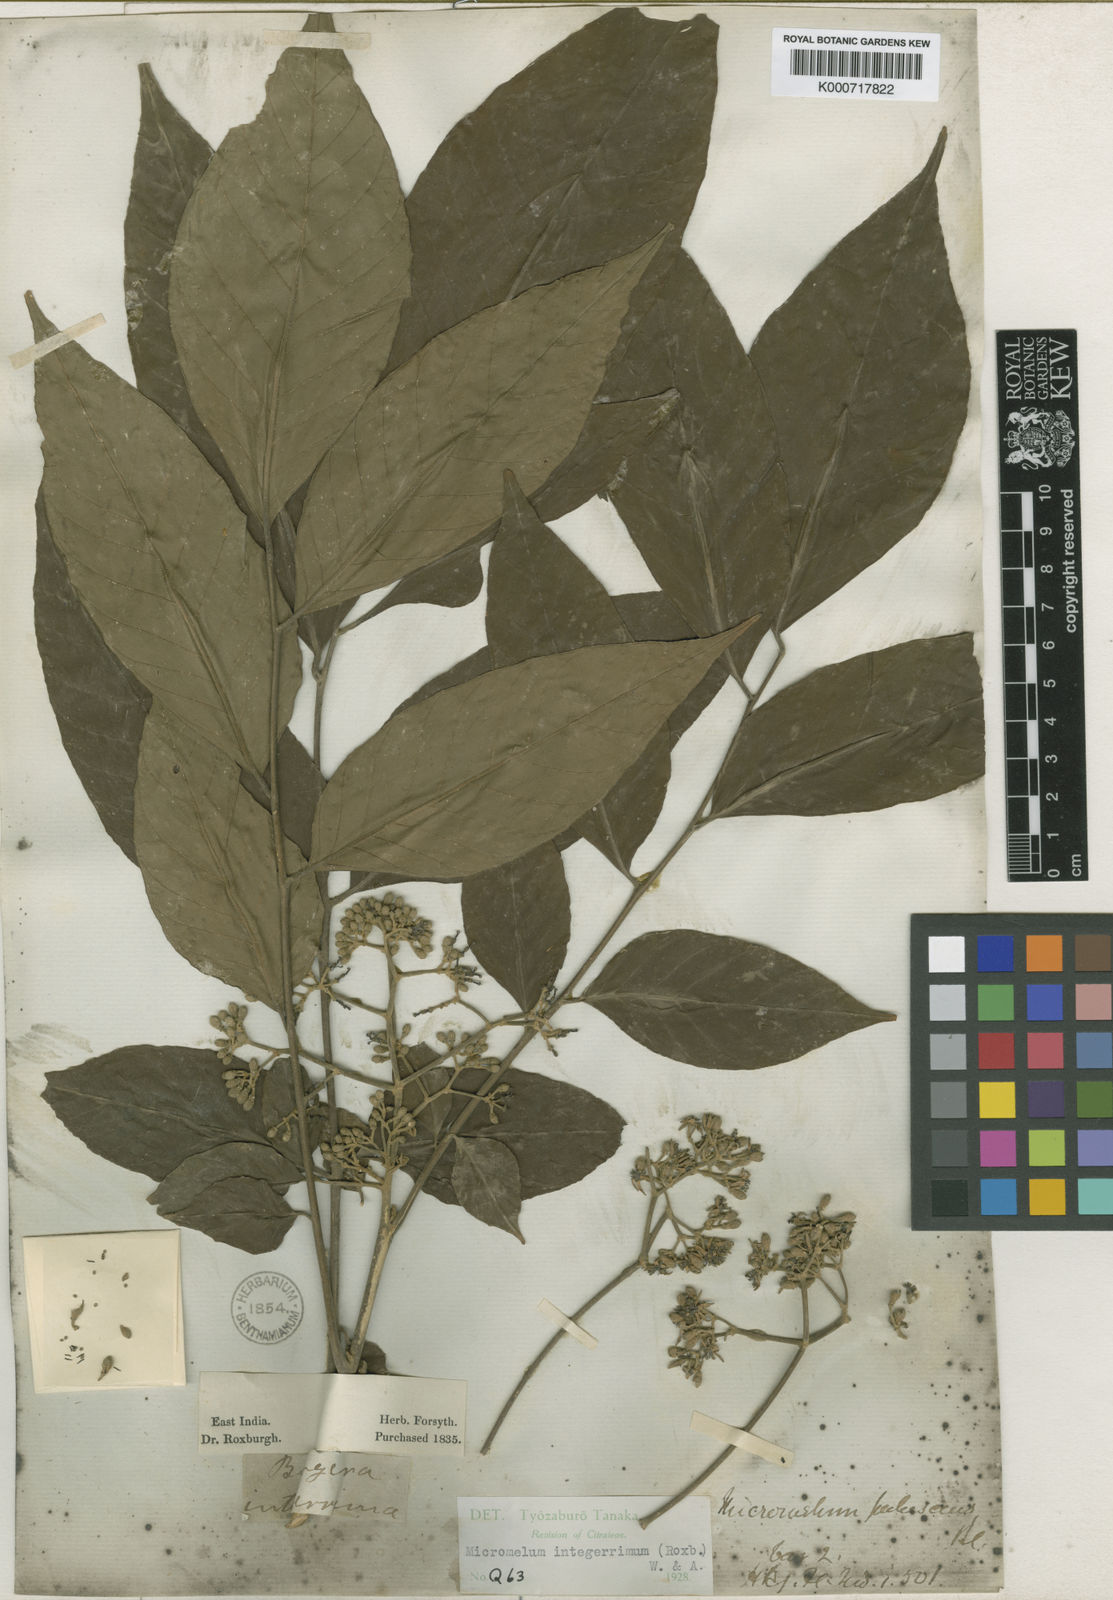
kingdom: Plantae
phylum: Tracheophyta
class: Magnoliopsida
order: Sapindales
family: Rutaceae
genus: Micromelum
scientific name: Micromelum
